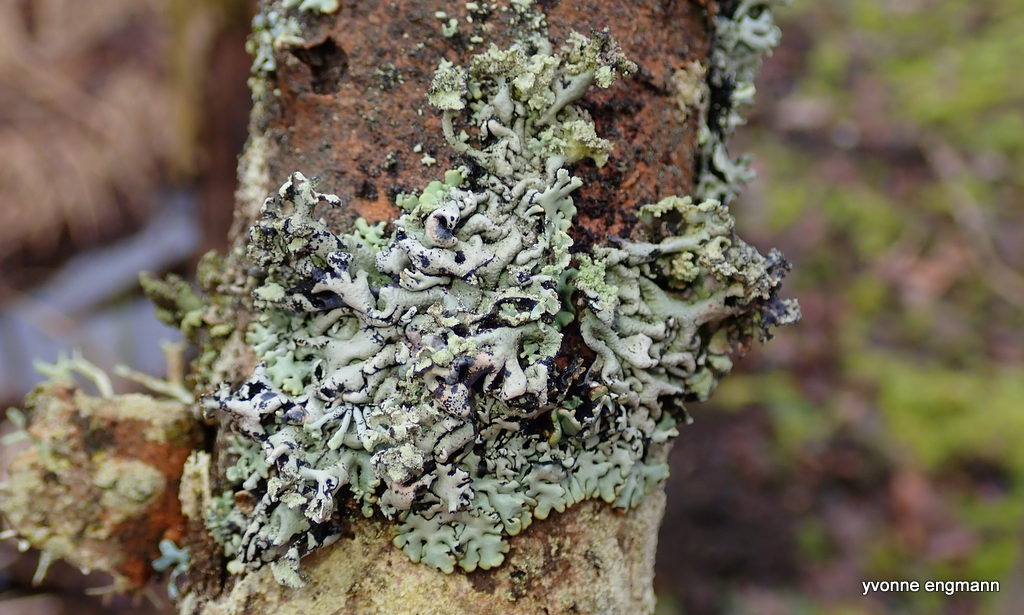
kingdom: Fungi
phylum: Ascomycota
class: Lecanoromycetes
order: Lecanorales
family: Parmeliaceae
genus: Hypogymnia
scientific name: Hypogymnia physodes
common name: almindelig kvistlav
